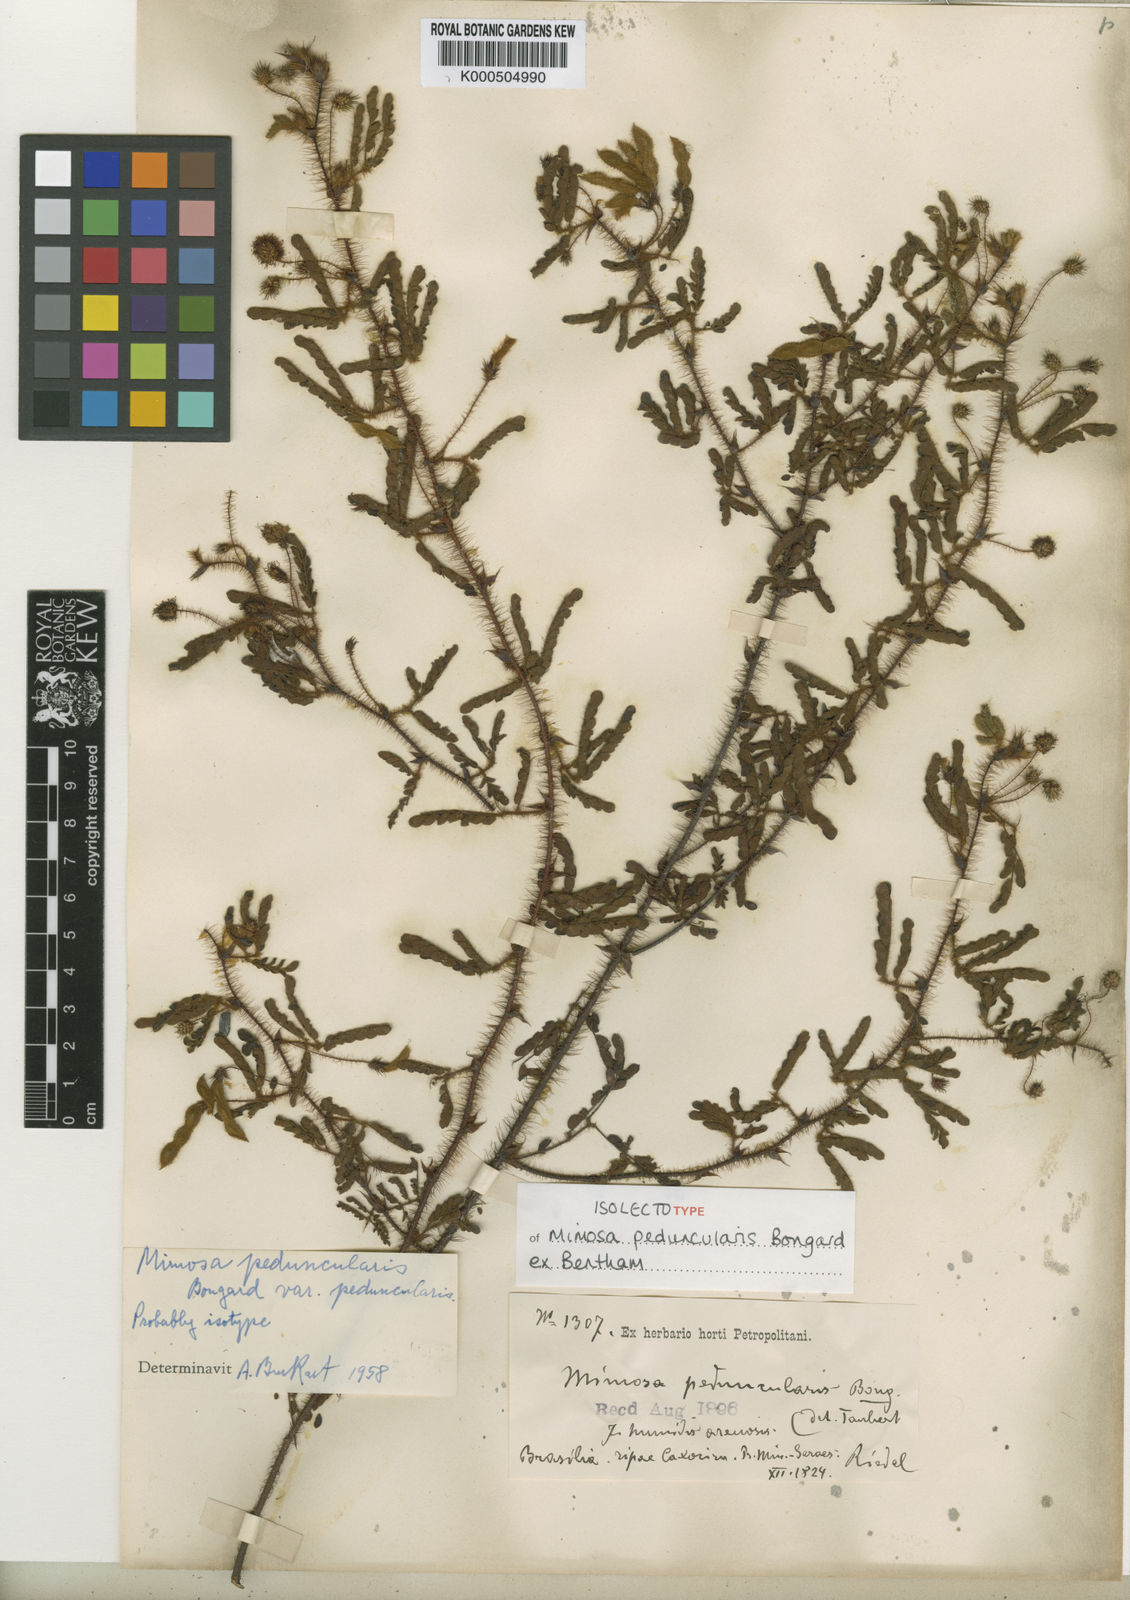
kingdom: Plantae
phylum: Tracheophyta
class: Magnoliopsida
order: Fabales
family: Fabaceae
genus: Mimosa
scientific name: Mimosa peduncularis
